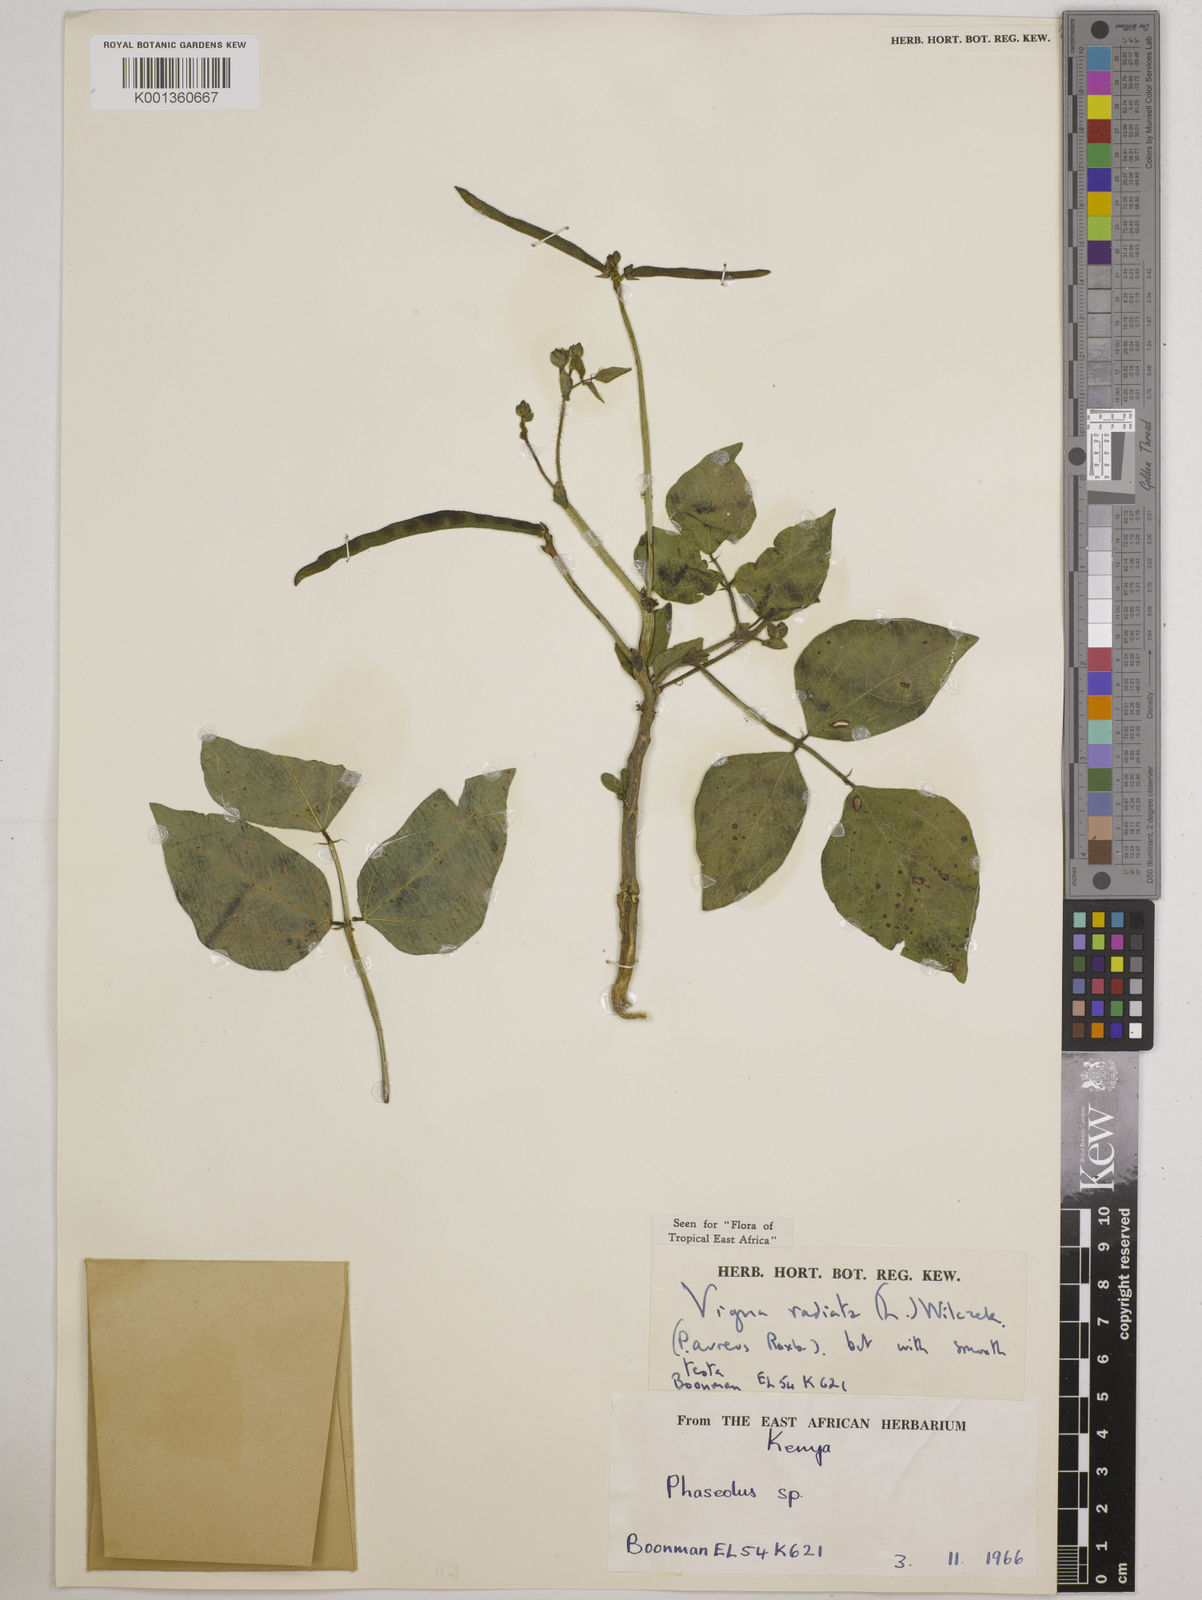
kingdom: Plantae
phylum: Tracheophyta
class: Magnoliopsida
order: Fabales
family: Fabaceae
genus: Vigna
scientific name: Vigna radiata
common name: Mung-bean
